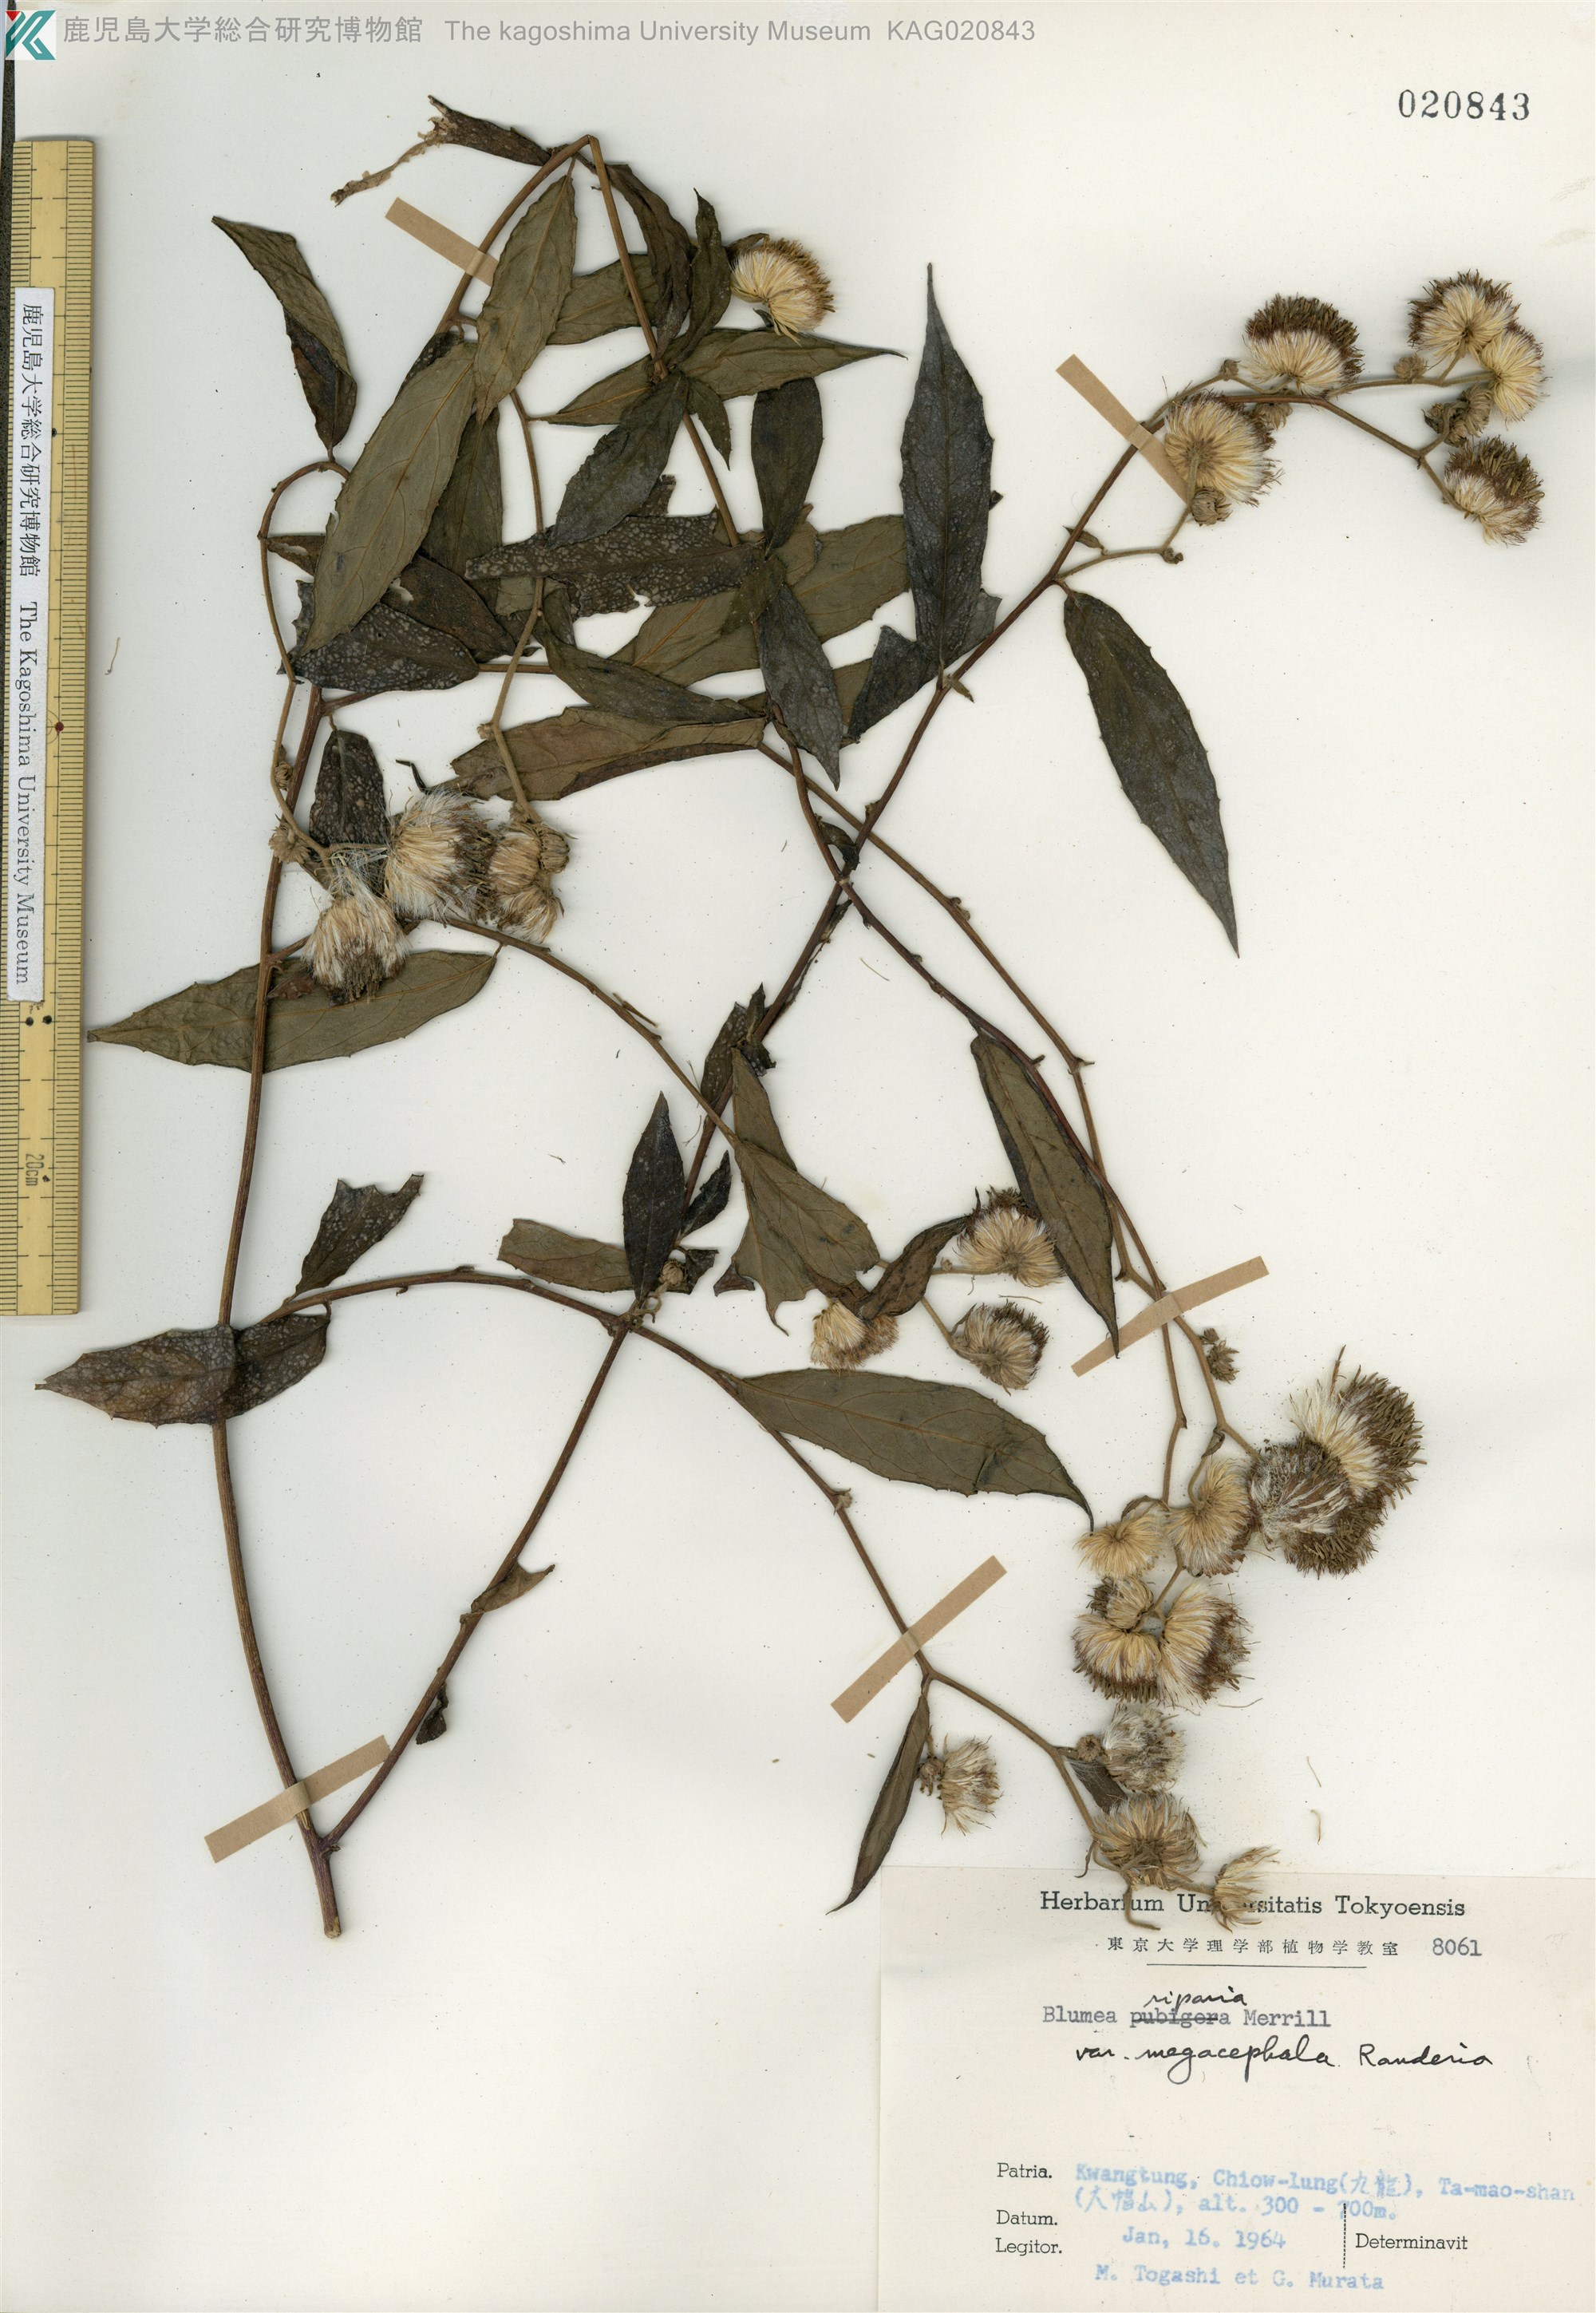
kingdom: Plantae
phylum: Tracheophyta
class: Magnoliopsida
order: Asterales
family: Asteraceae
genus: Blumea
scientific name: Blumea megacephala
